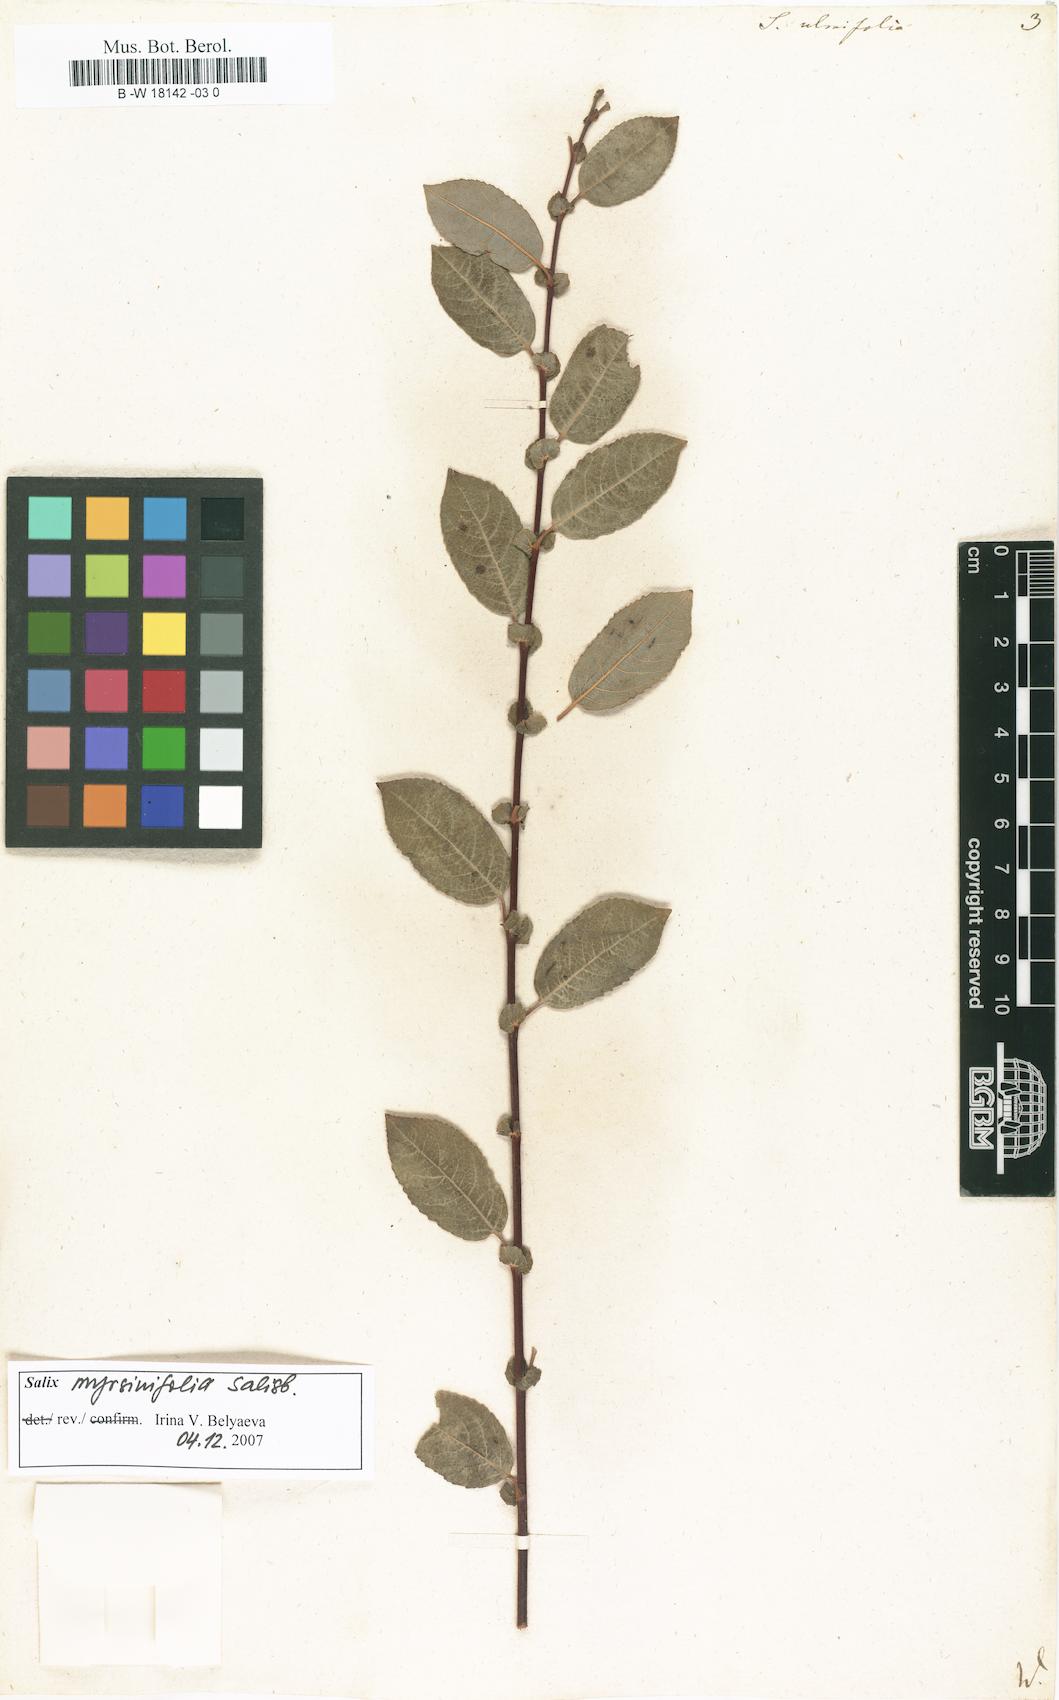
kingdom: Plantae
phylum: Tracheophyta
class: Magnoliopsida
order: Malpighiales
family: Salicaceae
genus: Salix
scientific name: Salix ulmifolia
